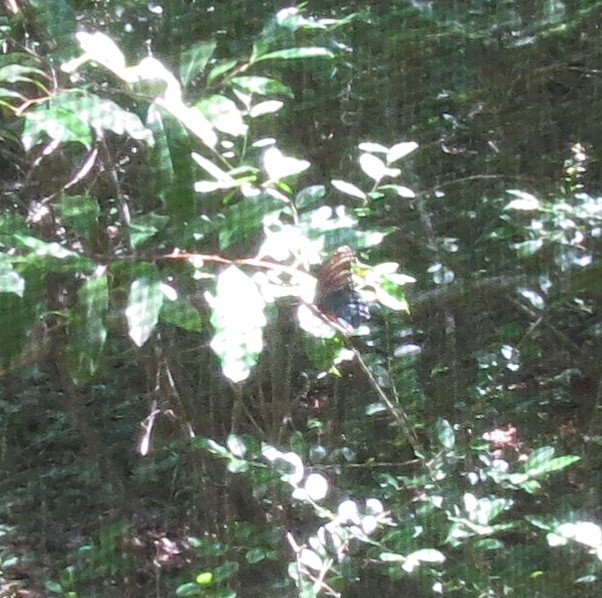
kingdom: Animalia
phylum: Arthropoda
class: Insecta
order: Lepidoptera
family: Nymphalidae
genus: Limenitis
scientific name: Limenitis astyanax
